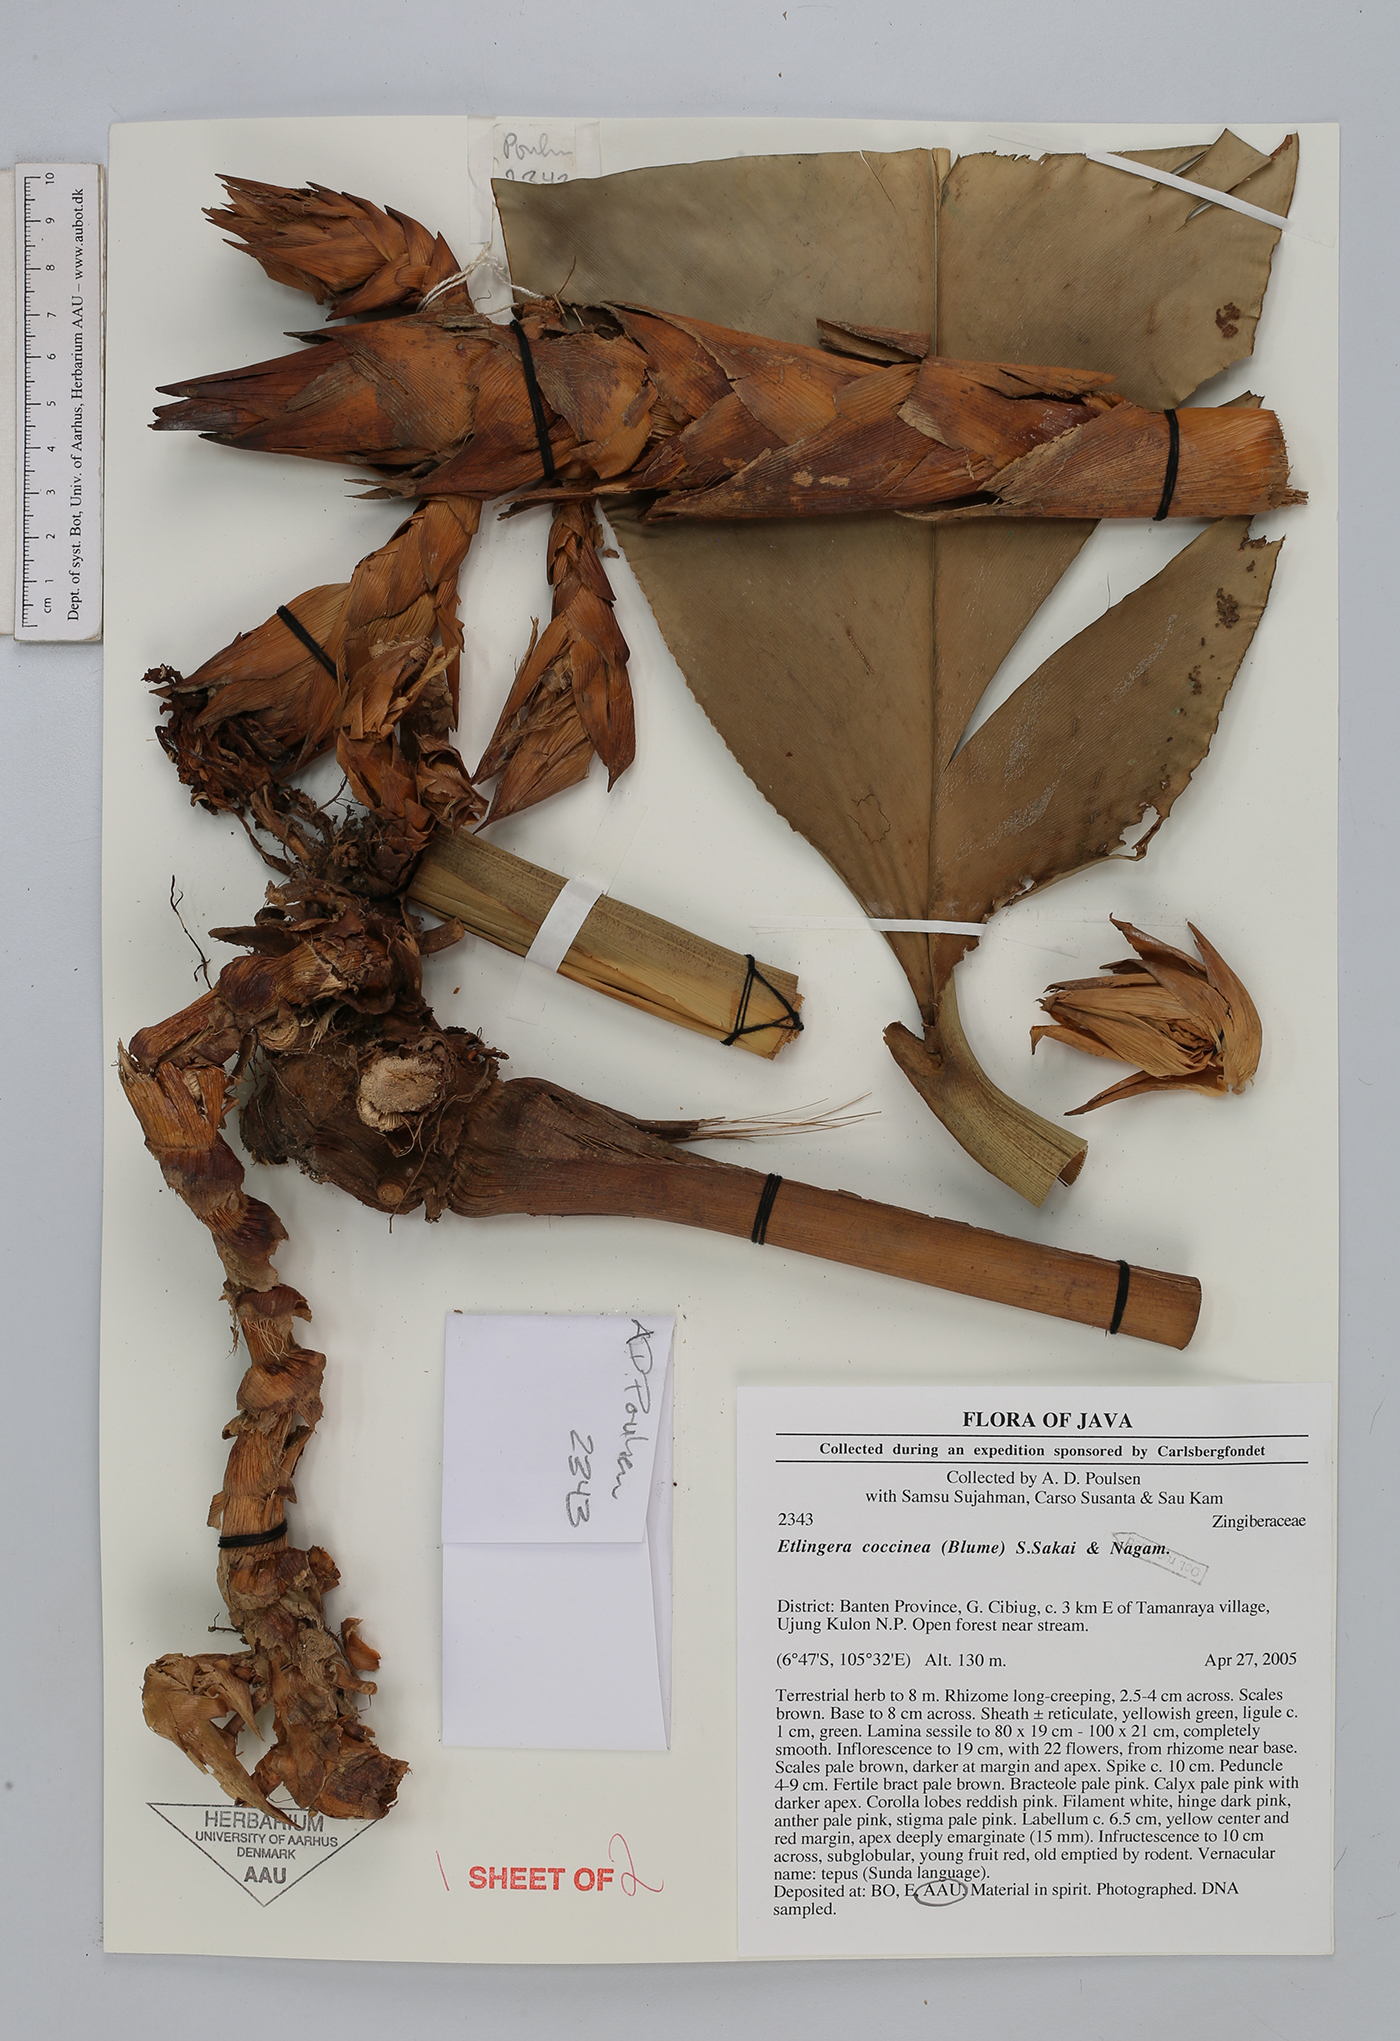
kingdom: Plantae
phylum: Tracheophyta
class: Liliopsida
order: Zingiberales
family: Zingiberaceae
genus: Etlingera
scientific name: Etlingera coccinea
